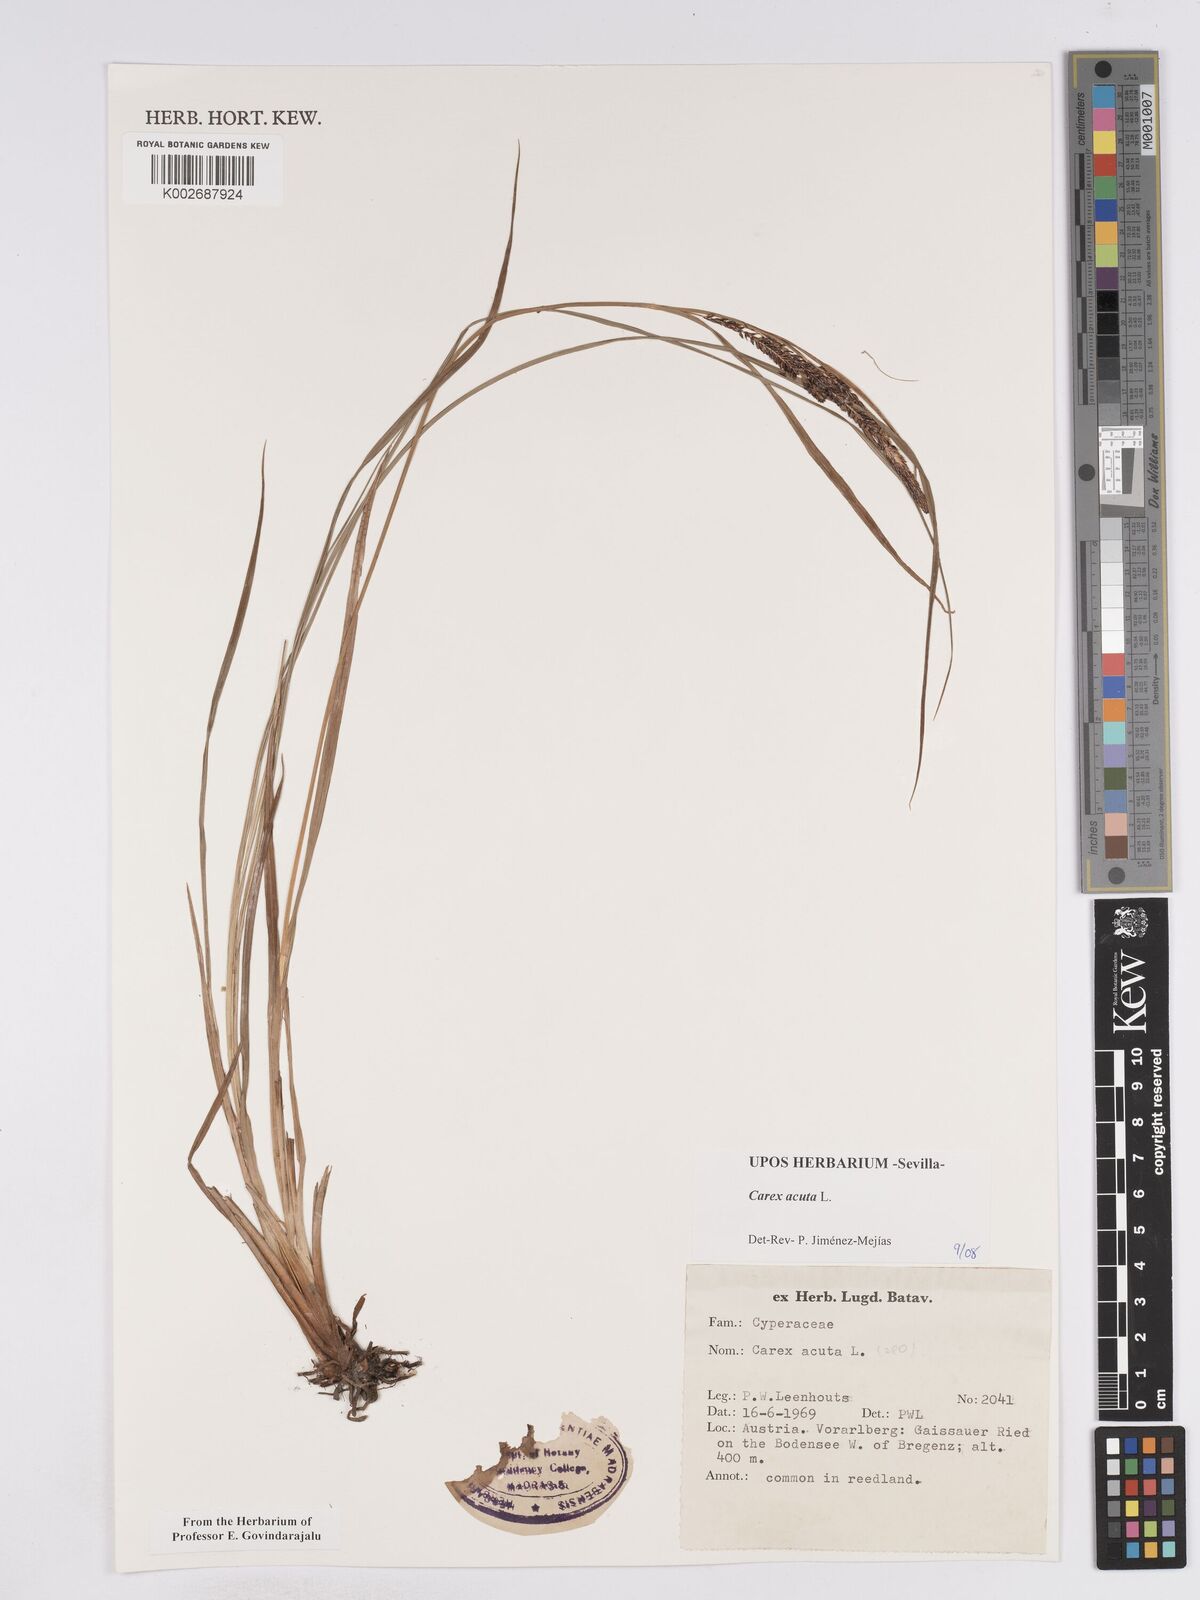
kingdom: Plantae
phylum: Tracheophyta
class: Liliopsida
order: Poales
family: Cyperaceae
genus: Carex
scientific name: Carex acuta
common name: Slender tufted-sedge
